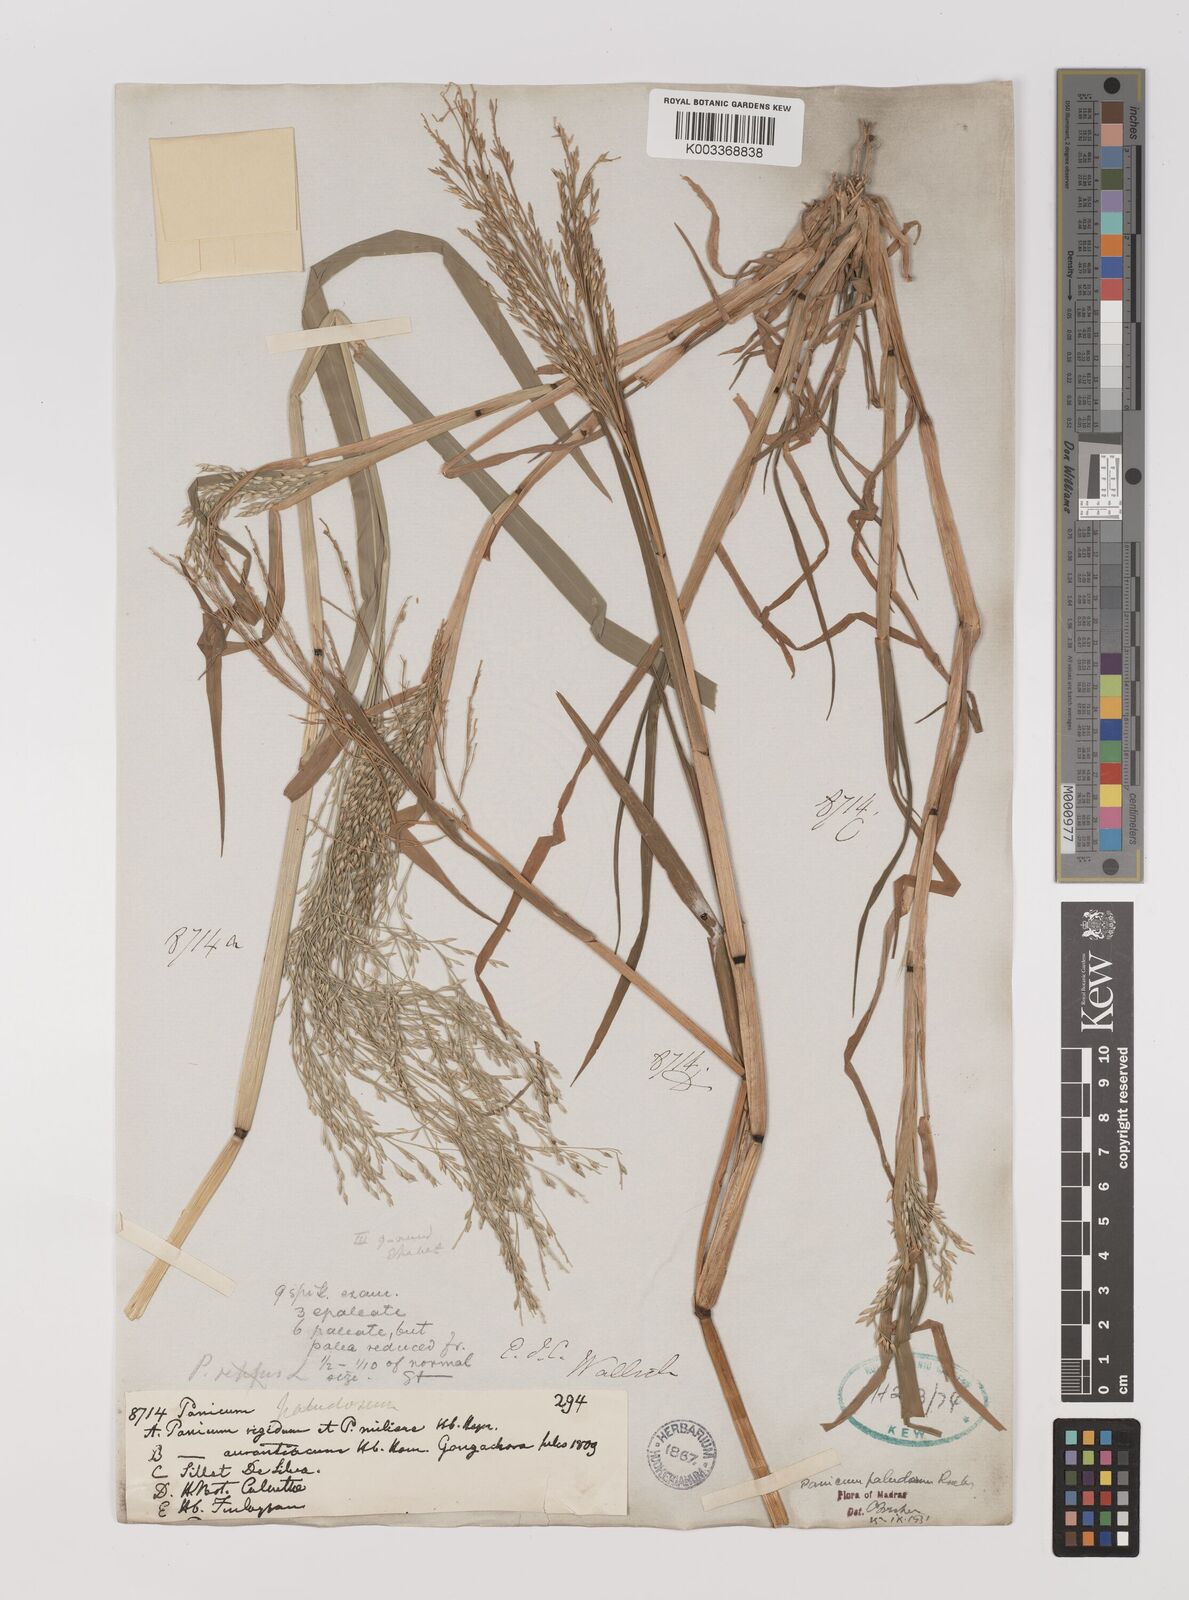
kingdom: Plantae
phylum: Tracheophyta
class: Liliopsida
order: Poales
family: Poaceae
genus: Louisiella
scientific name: Louisiella paludosa
